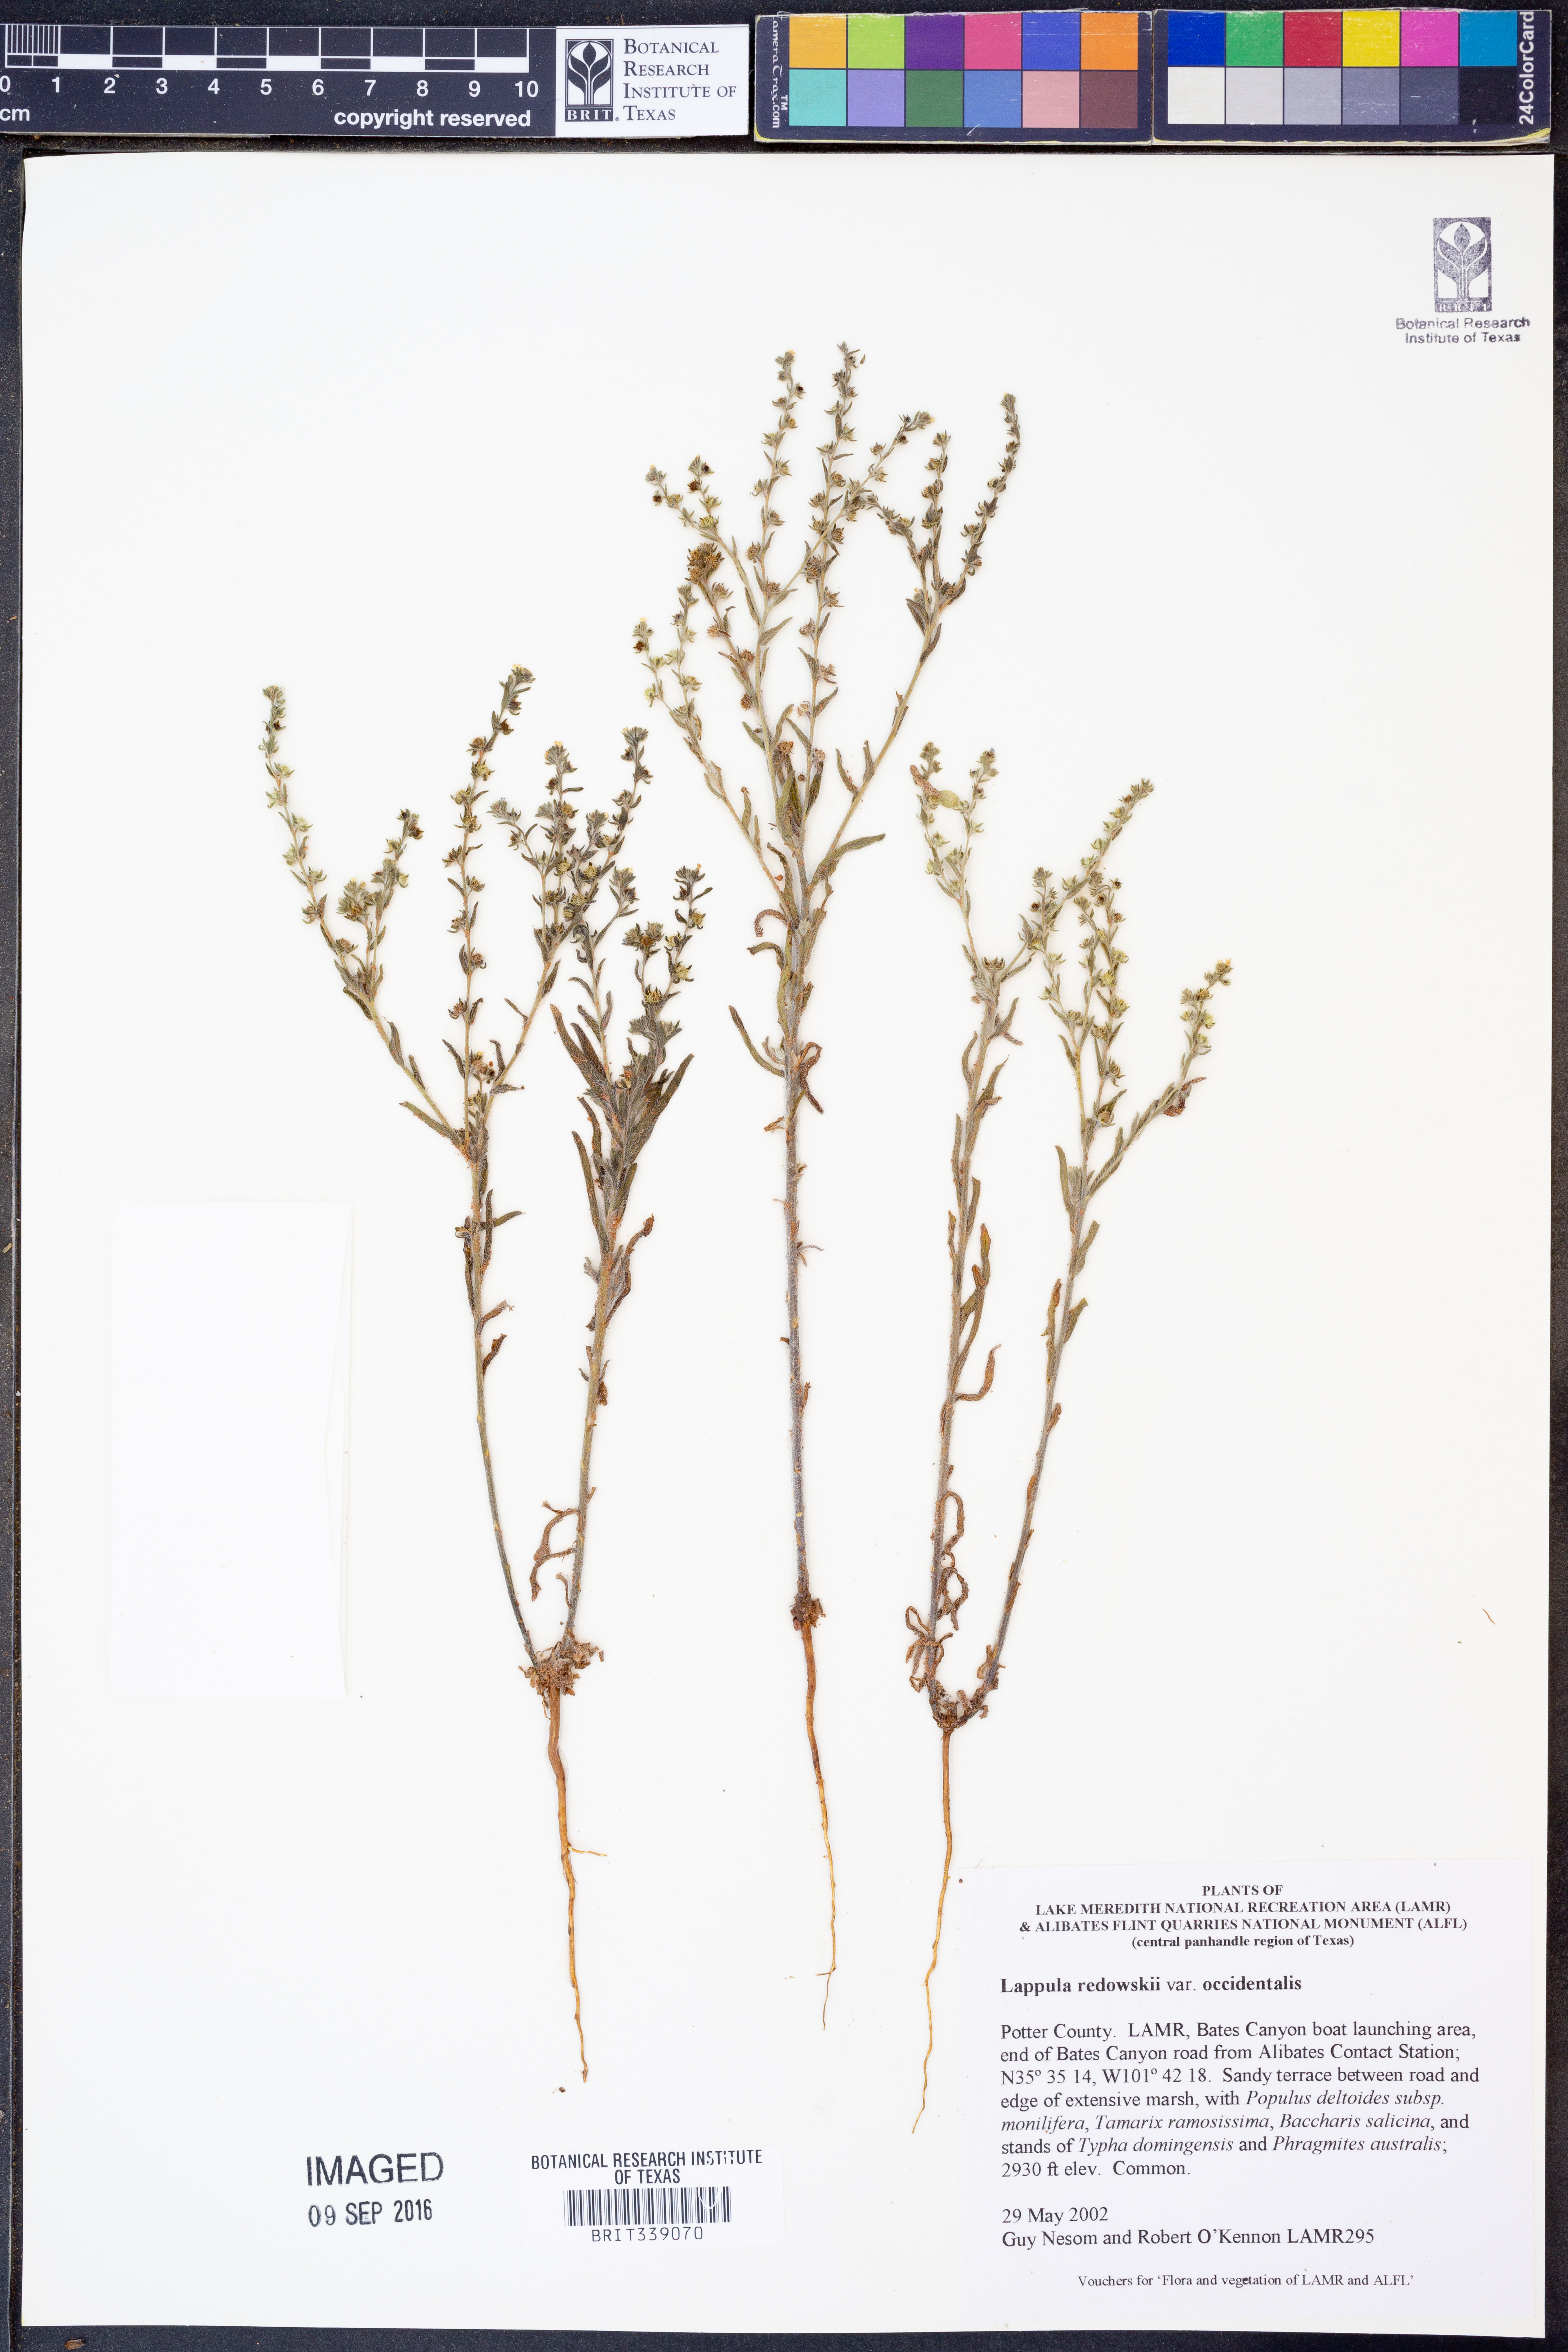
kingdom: Plantae
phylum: Tracheophyta
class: Magnoliopsida
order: Boraginales
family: Boraginaceae
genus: Lappula
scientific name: Lappula occidentalis
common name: Western stickseed
